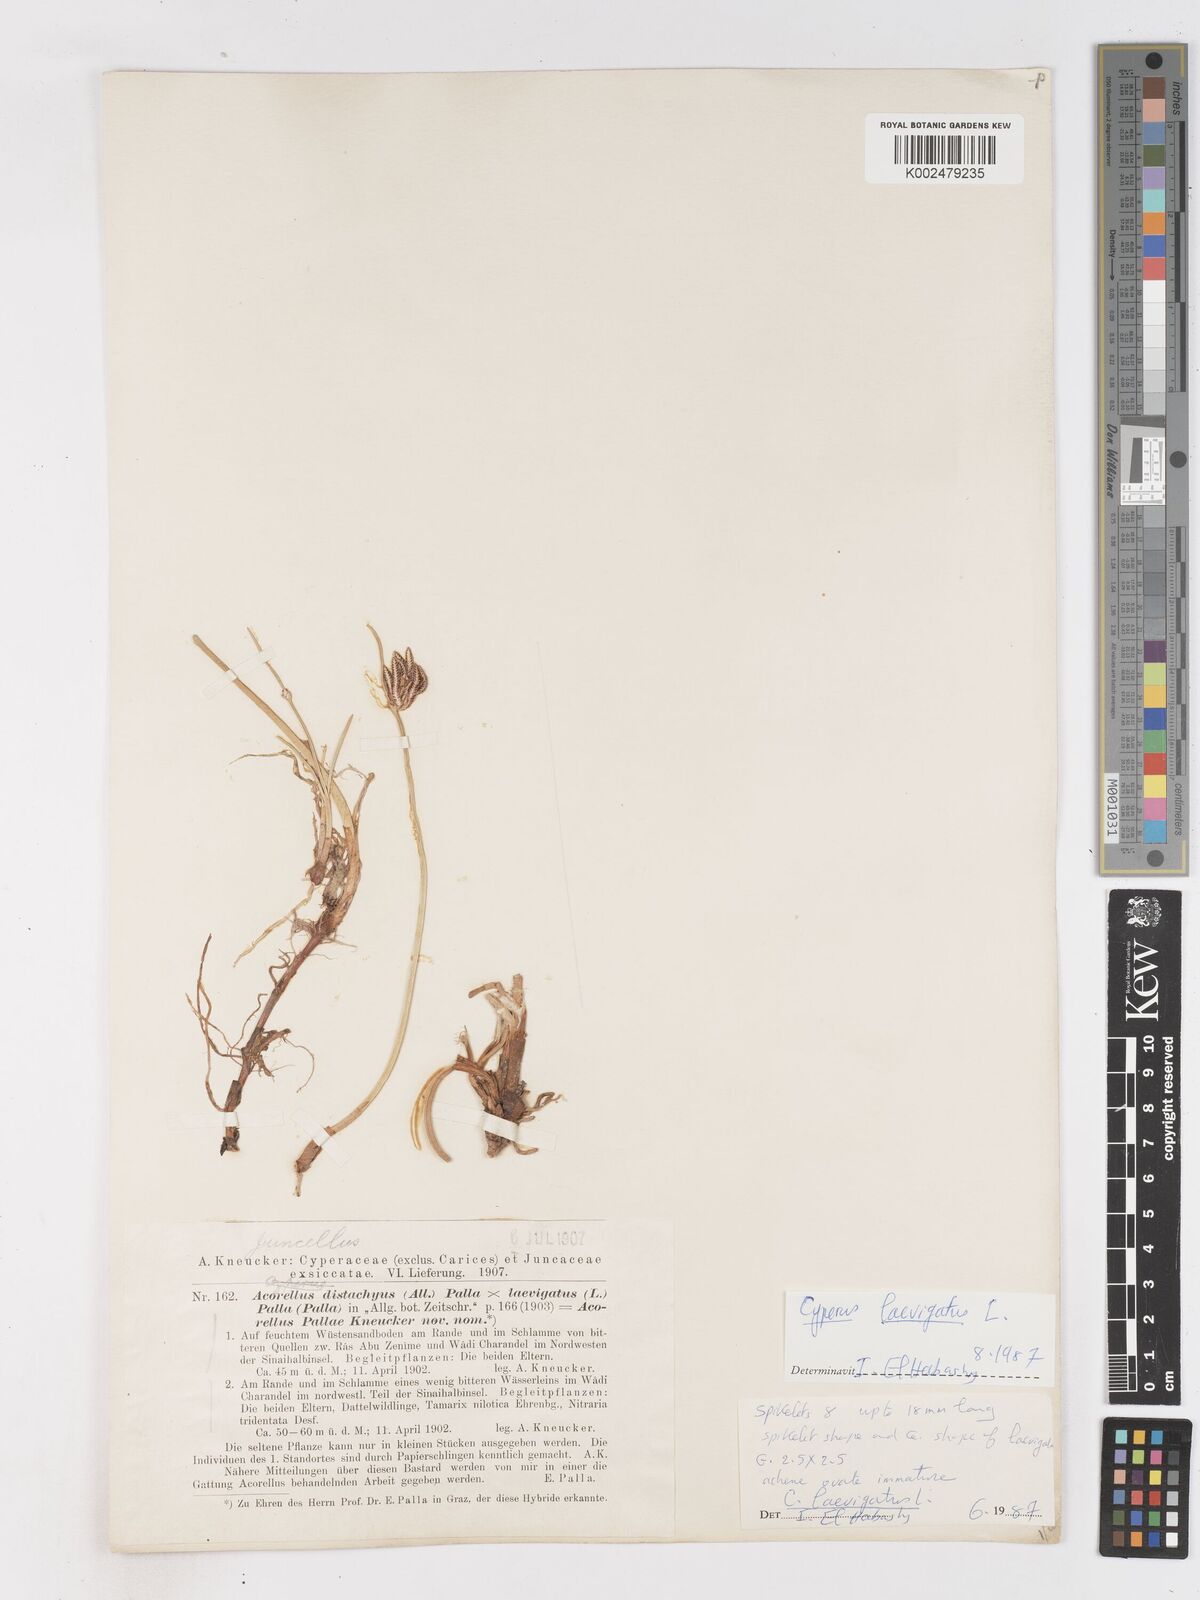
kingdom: Plantae
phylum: Tracheophyta
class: Liliopsida
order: Poales
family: Cyperaceae
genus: Cyperus
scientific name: Cyperus laevigatus
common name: Smooth flat sedge
